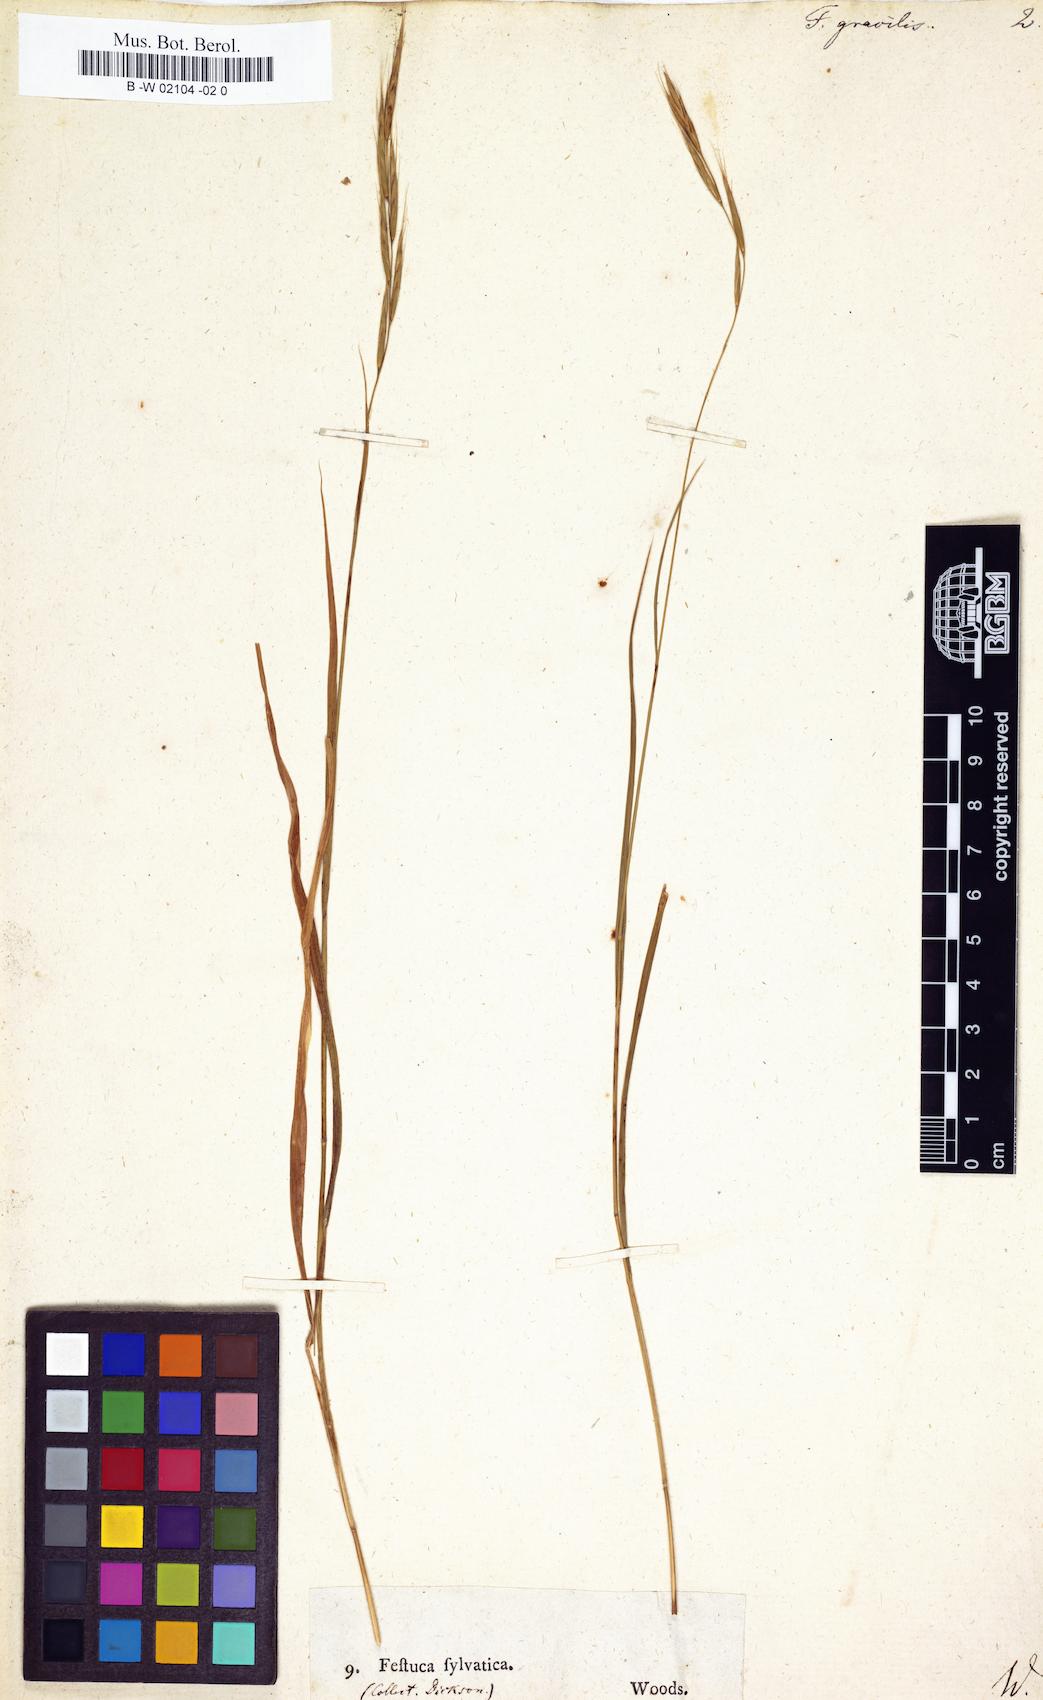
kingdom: Plantae
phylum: Tracheophyta
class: Liliopsida
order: Poales
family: Poaceae
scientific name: Poaceae
